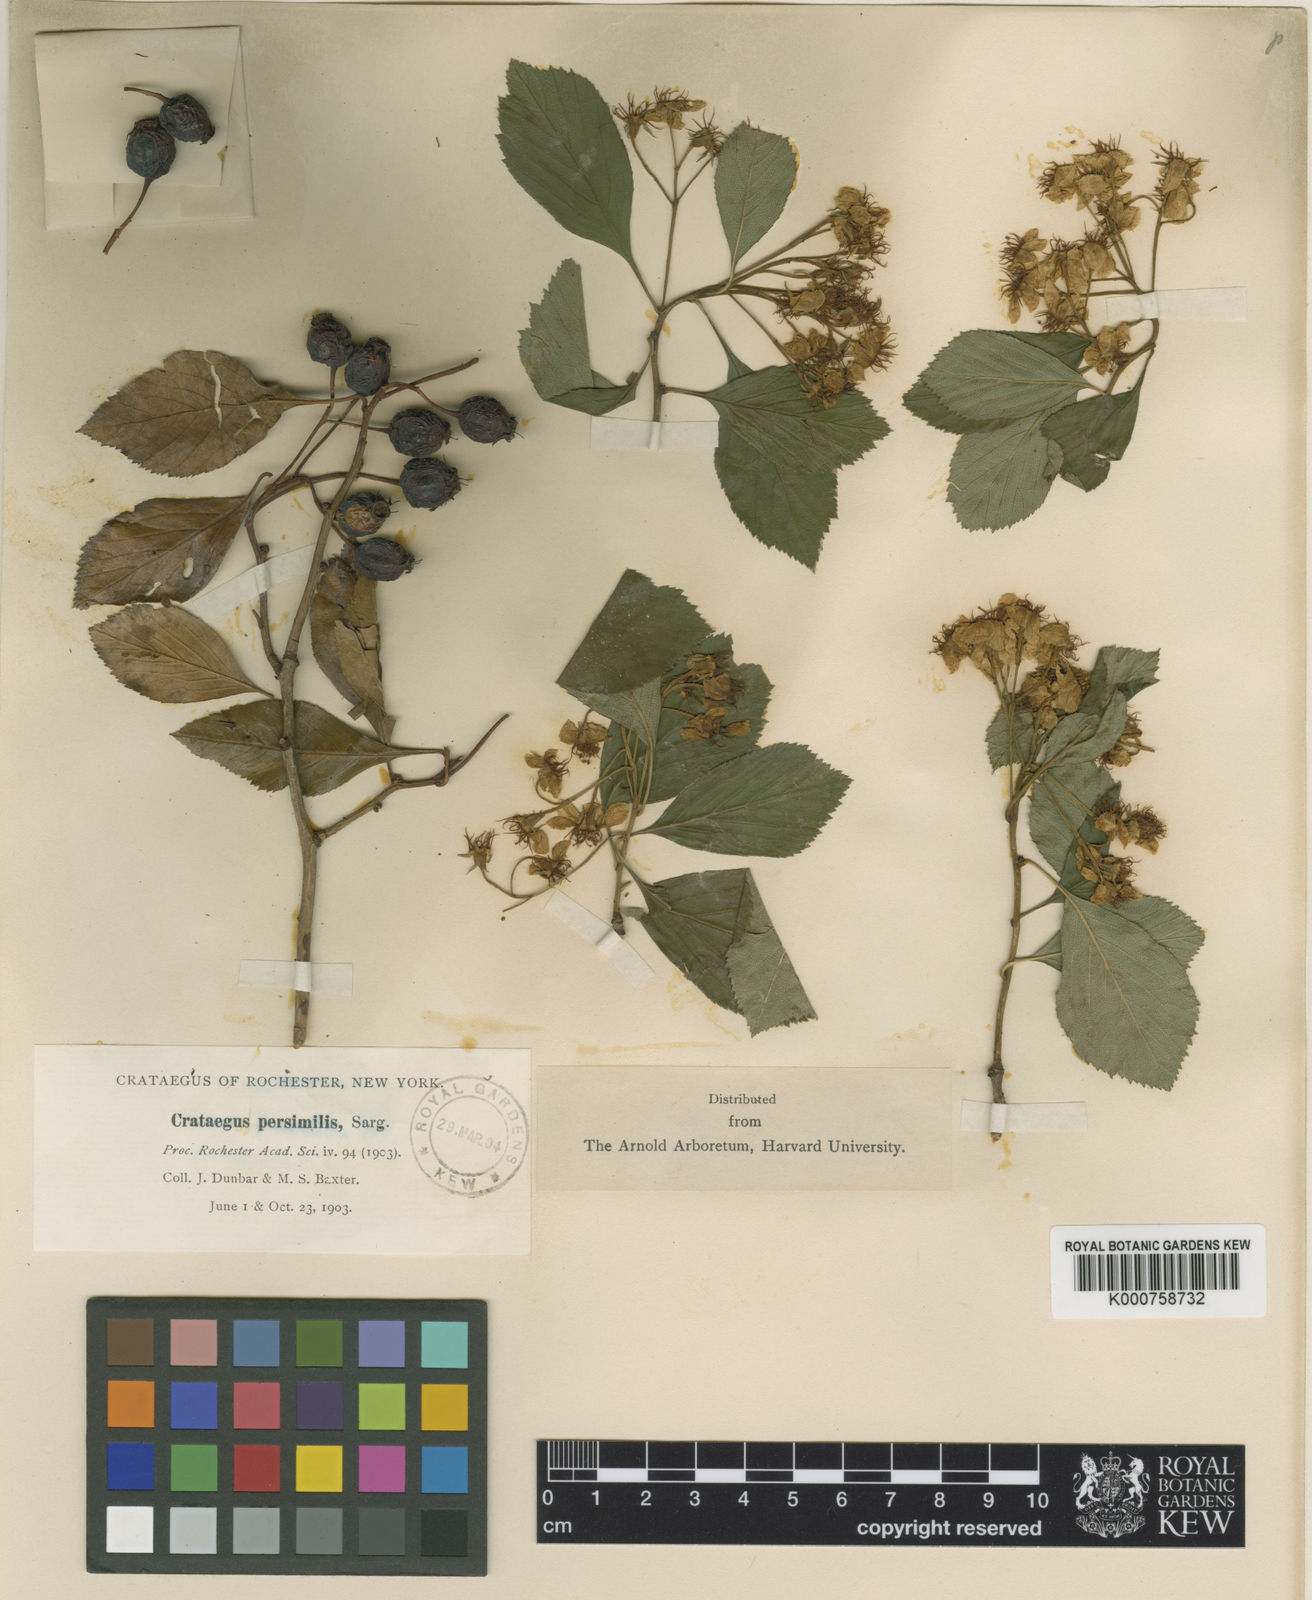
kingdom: Plantae
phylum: Tracheophyta
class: Magnoliopsida
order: Rosales
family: Rosaceae
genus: Crataegus
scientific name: Crataegus crus-galli
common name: Cockspurthorn
